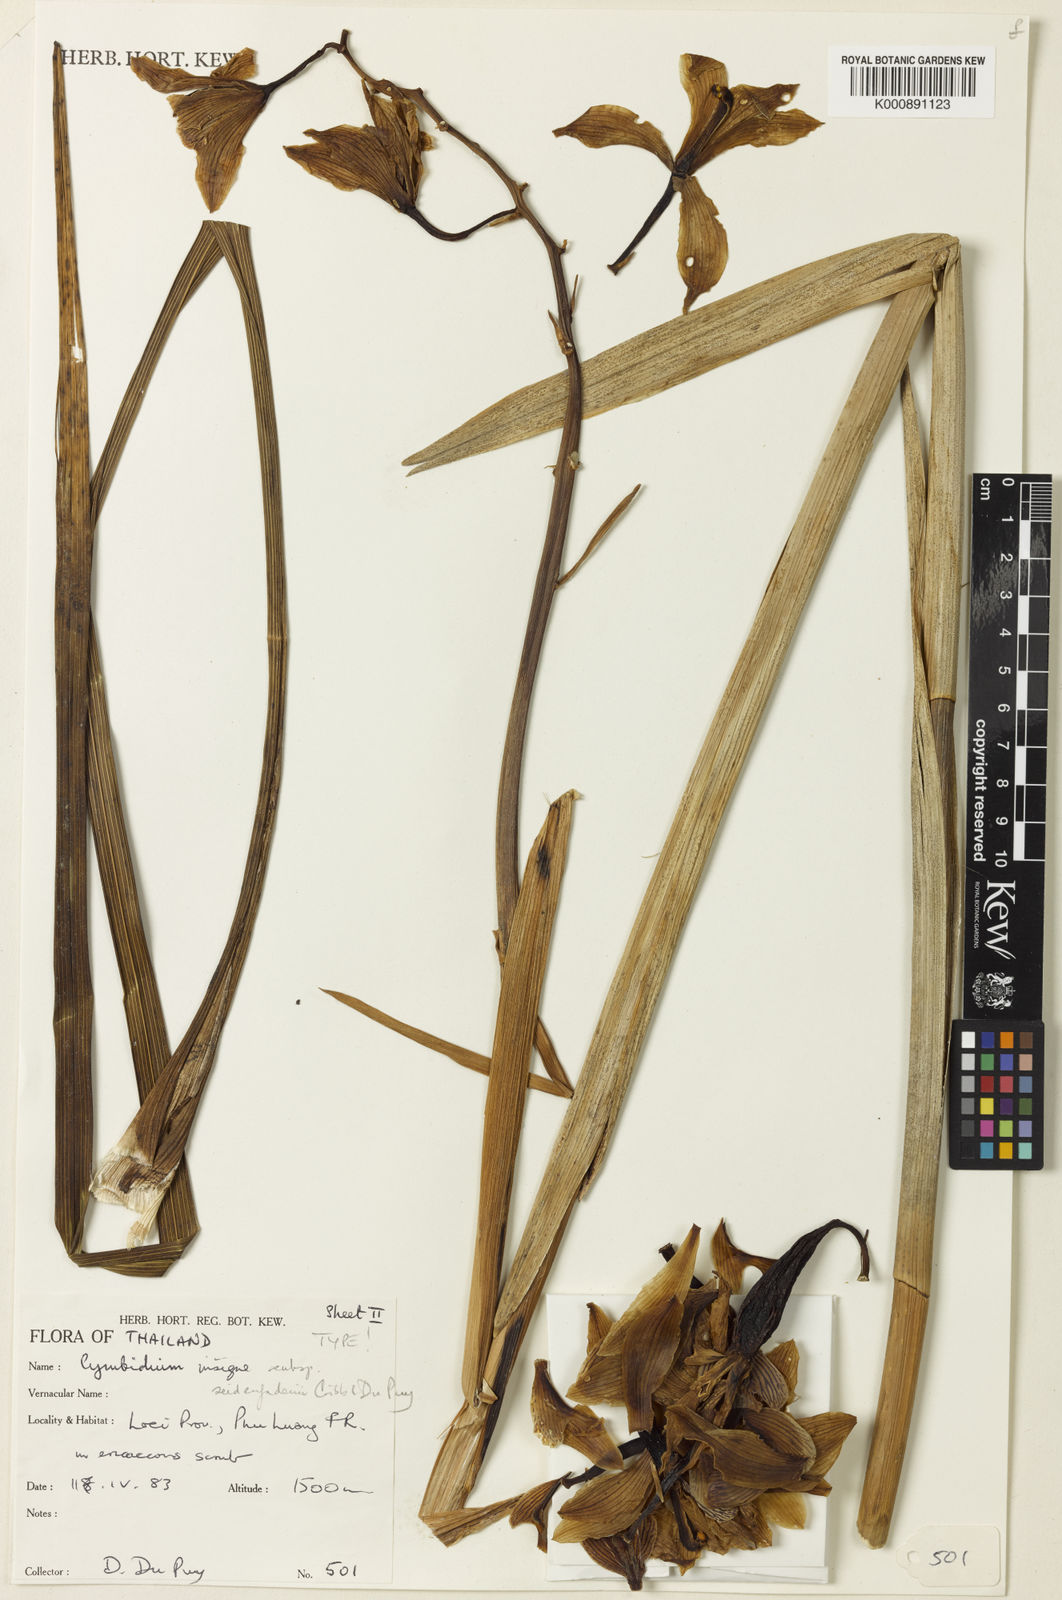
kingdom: Plantae
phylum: Tracheophyta
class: Liliopsida
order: Asparagales
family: Orchidaceae
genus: Cymbidium
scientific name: Cymbidium seidenfadenii
